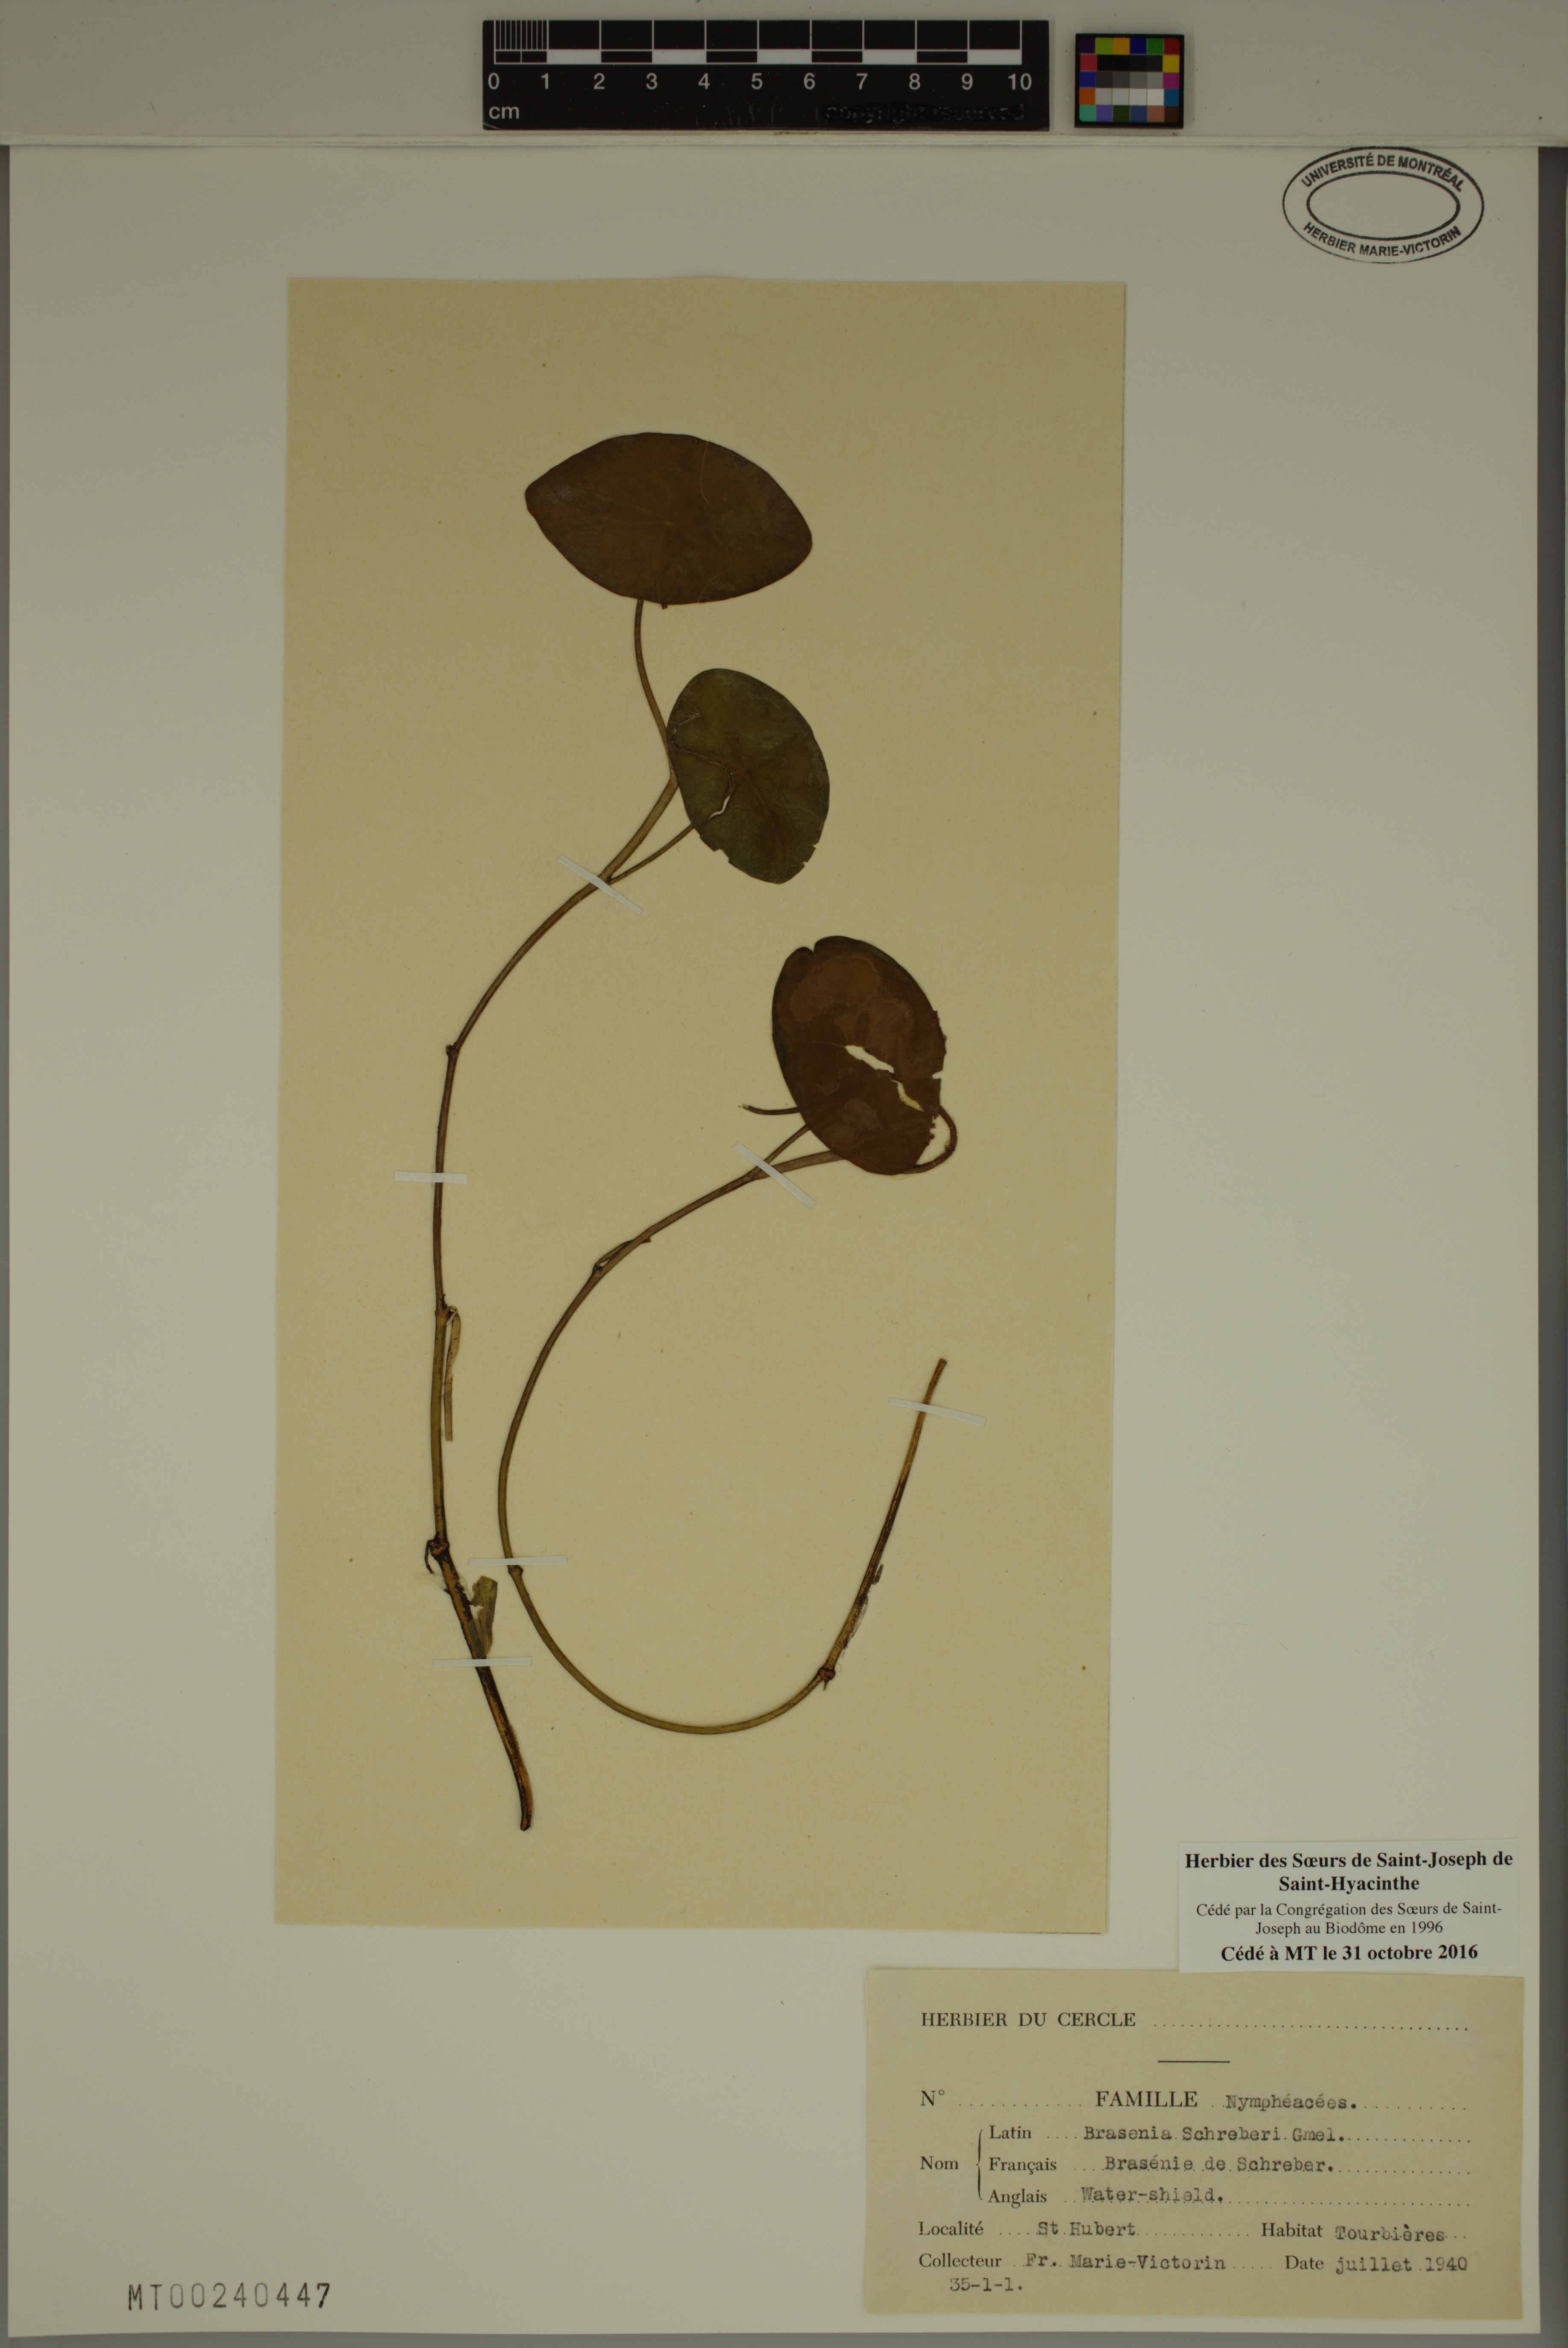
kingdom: Plantae
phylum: Tracheophyta
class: Magnoliopsida
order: Nymphaeales
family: Cabombaceae
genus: Brasenia
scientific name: Brasenia schreberi
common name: Water-shield
